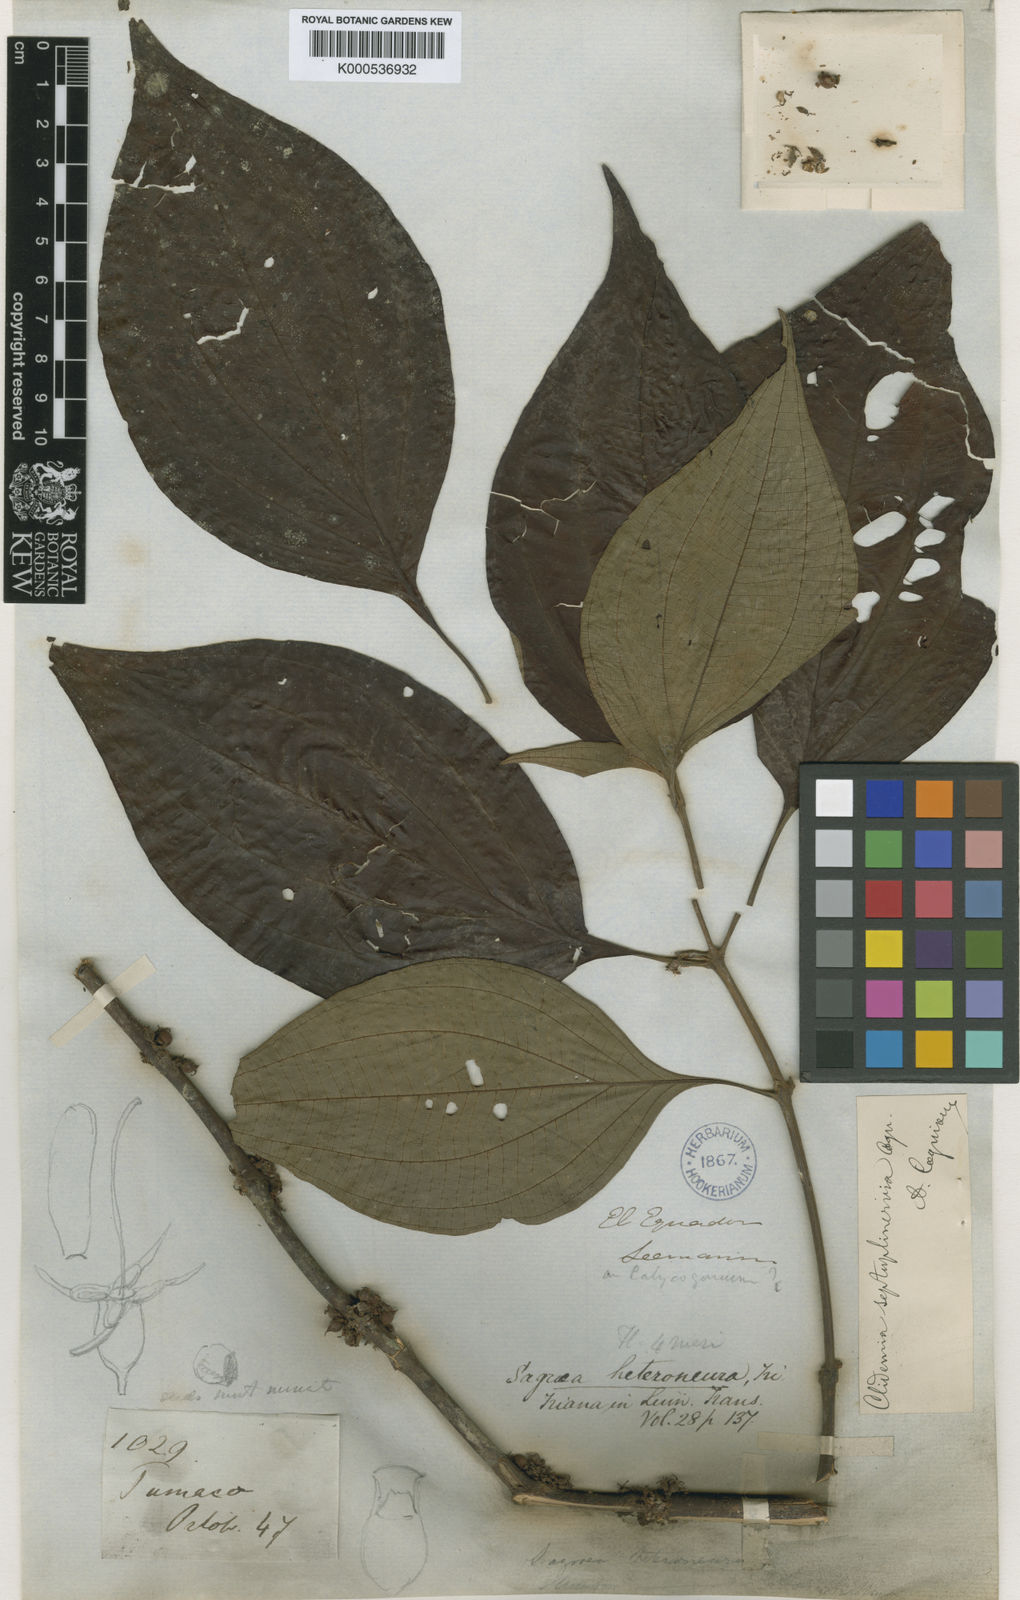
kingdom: Plantae
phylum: Tracheophyta
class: Magnoliopsida
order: Myrtales
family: Melastomataceae
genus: Miconia
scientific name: Miconia trichocalyx
